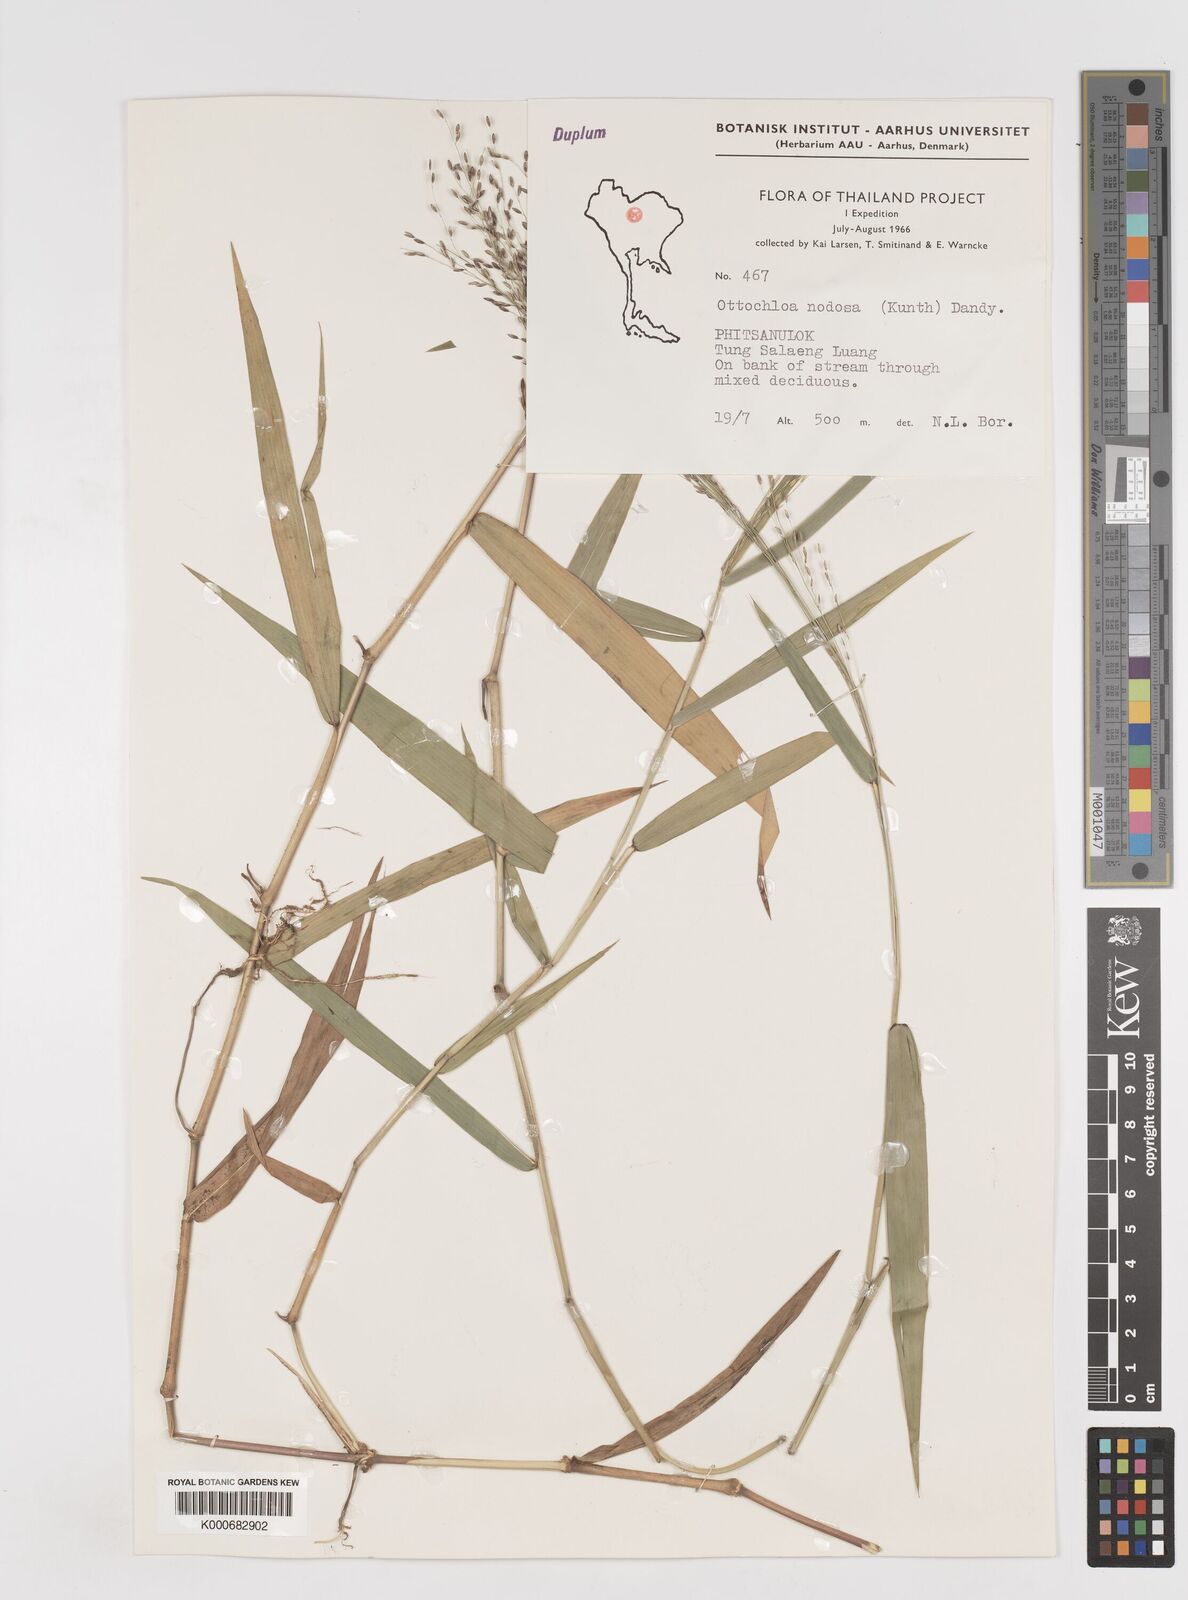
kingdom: Plantae
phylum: Tracheophyta
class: Liliopsida
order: Poales
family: Poaceae
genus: Ottochloa
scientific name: Ottochloa nodosa
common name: Slender-panic grass
